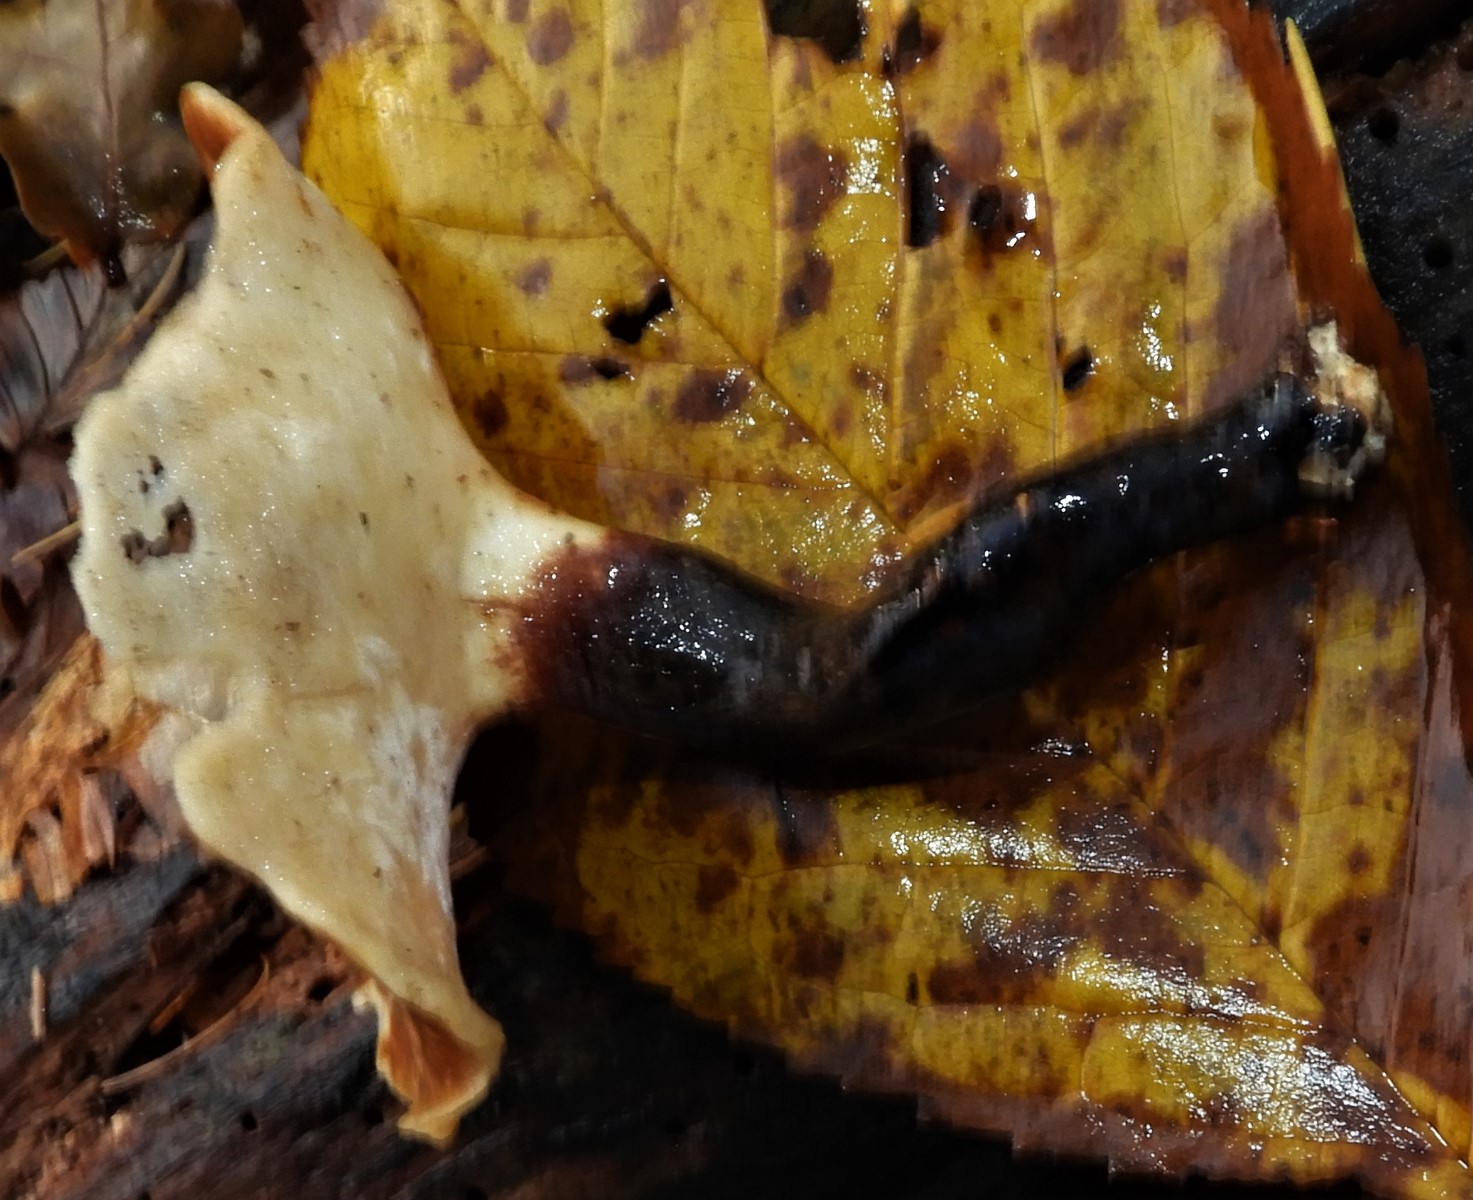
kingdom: Fungi
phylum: Basidiomycota
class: Agaricomycetes
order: Polyporales
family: Polyporaceae
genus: Cerioporus
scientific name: Cerioporus varius
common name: foranderlig stilkporesvamp
